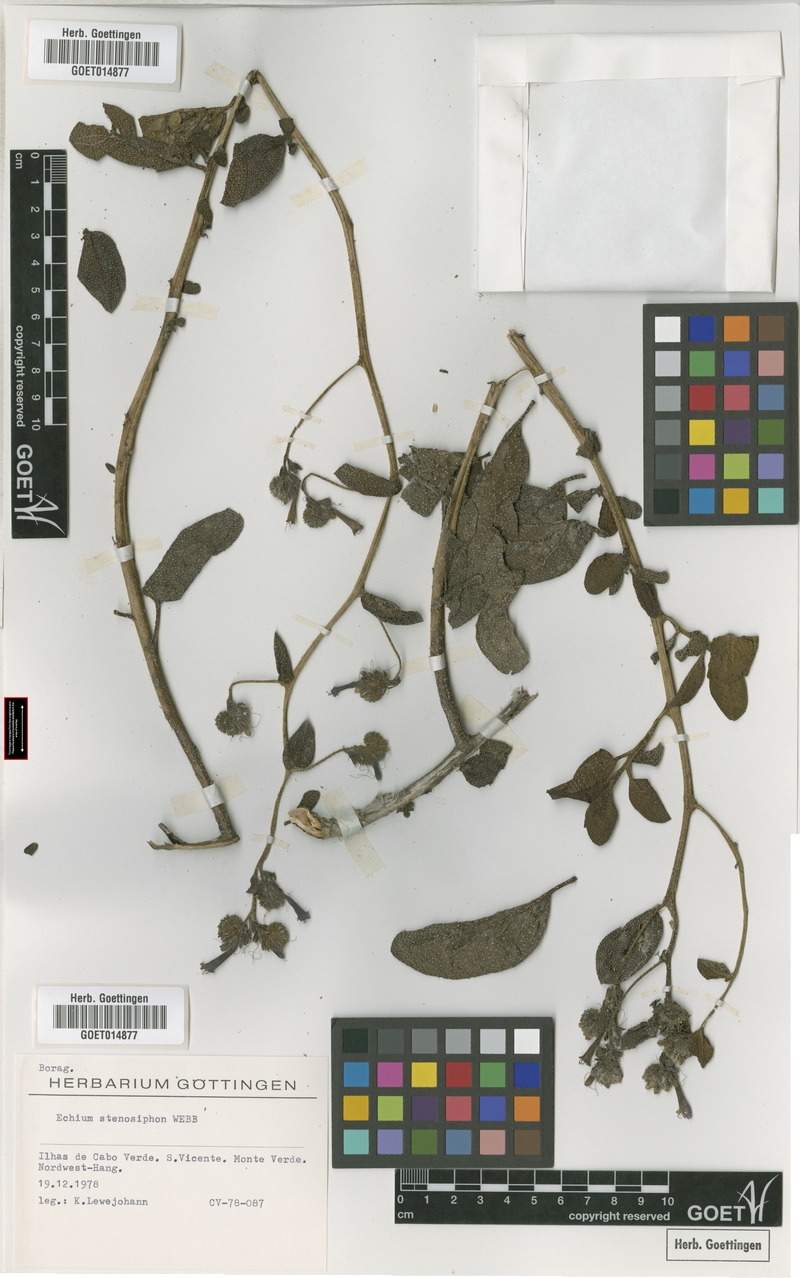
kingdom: Plantae
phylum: Tracheophyta
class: Magnoliopsida
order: Boraginales
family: Boraginaceae
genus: Echium
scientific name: Echium stenosiphon
